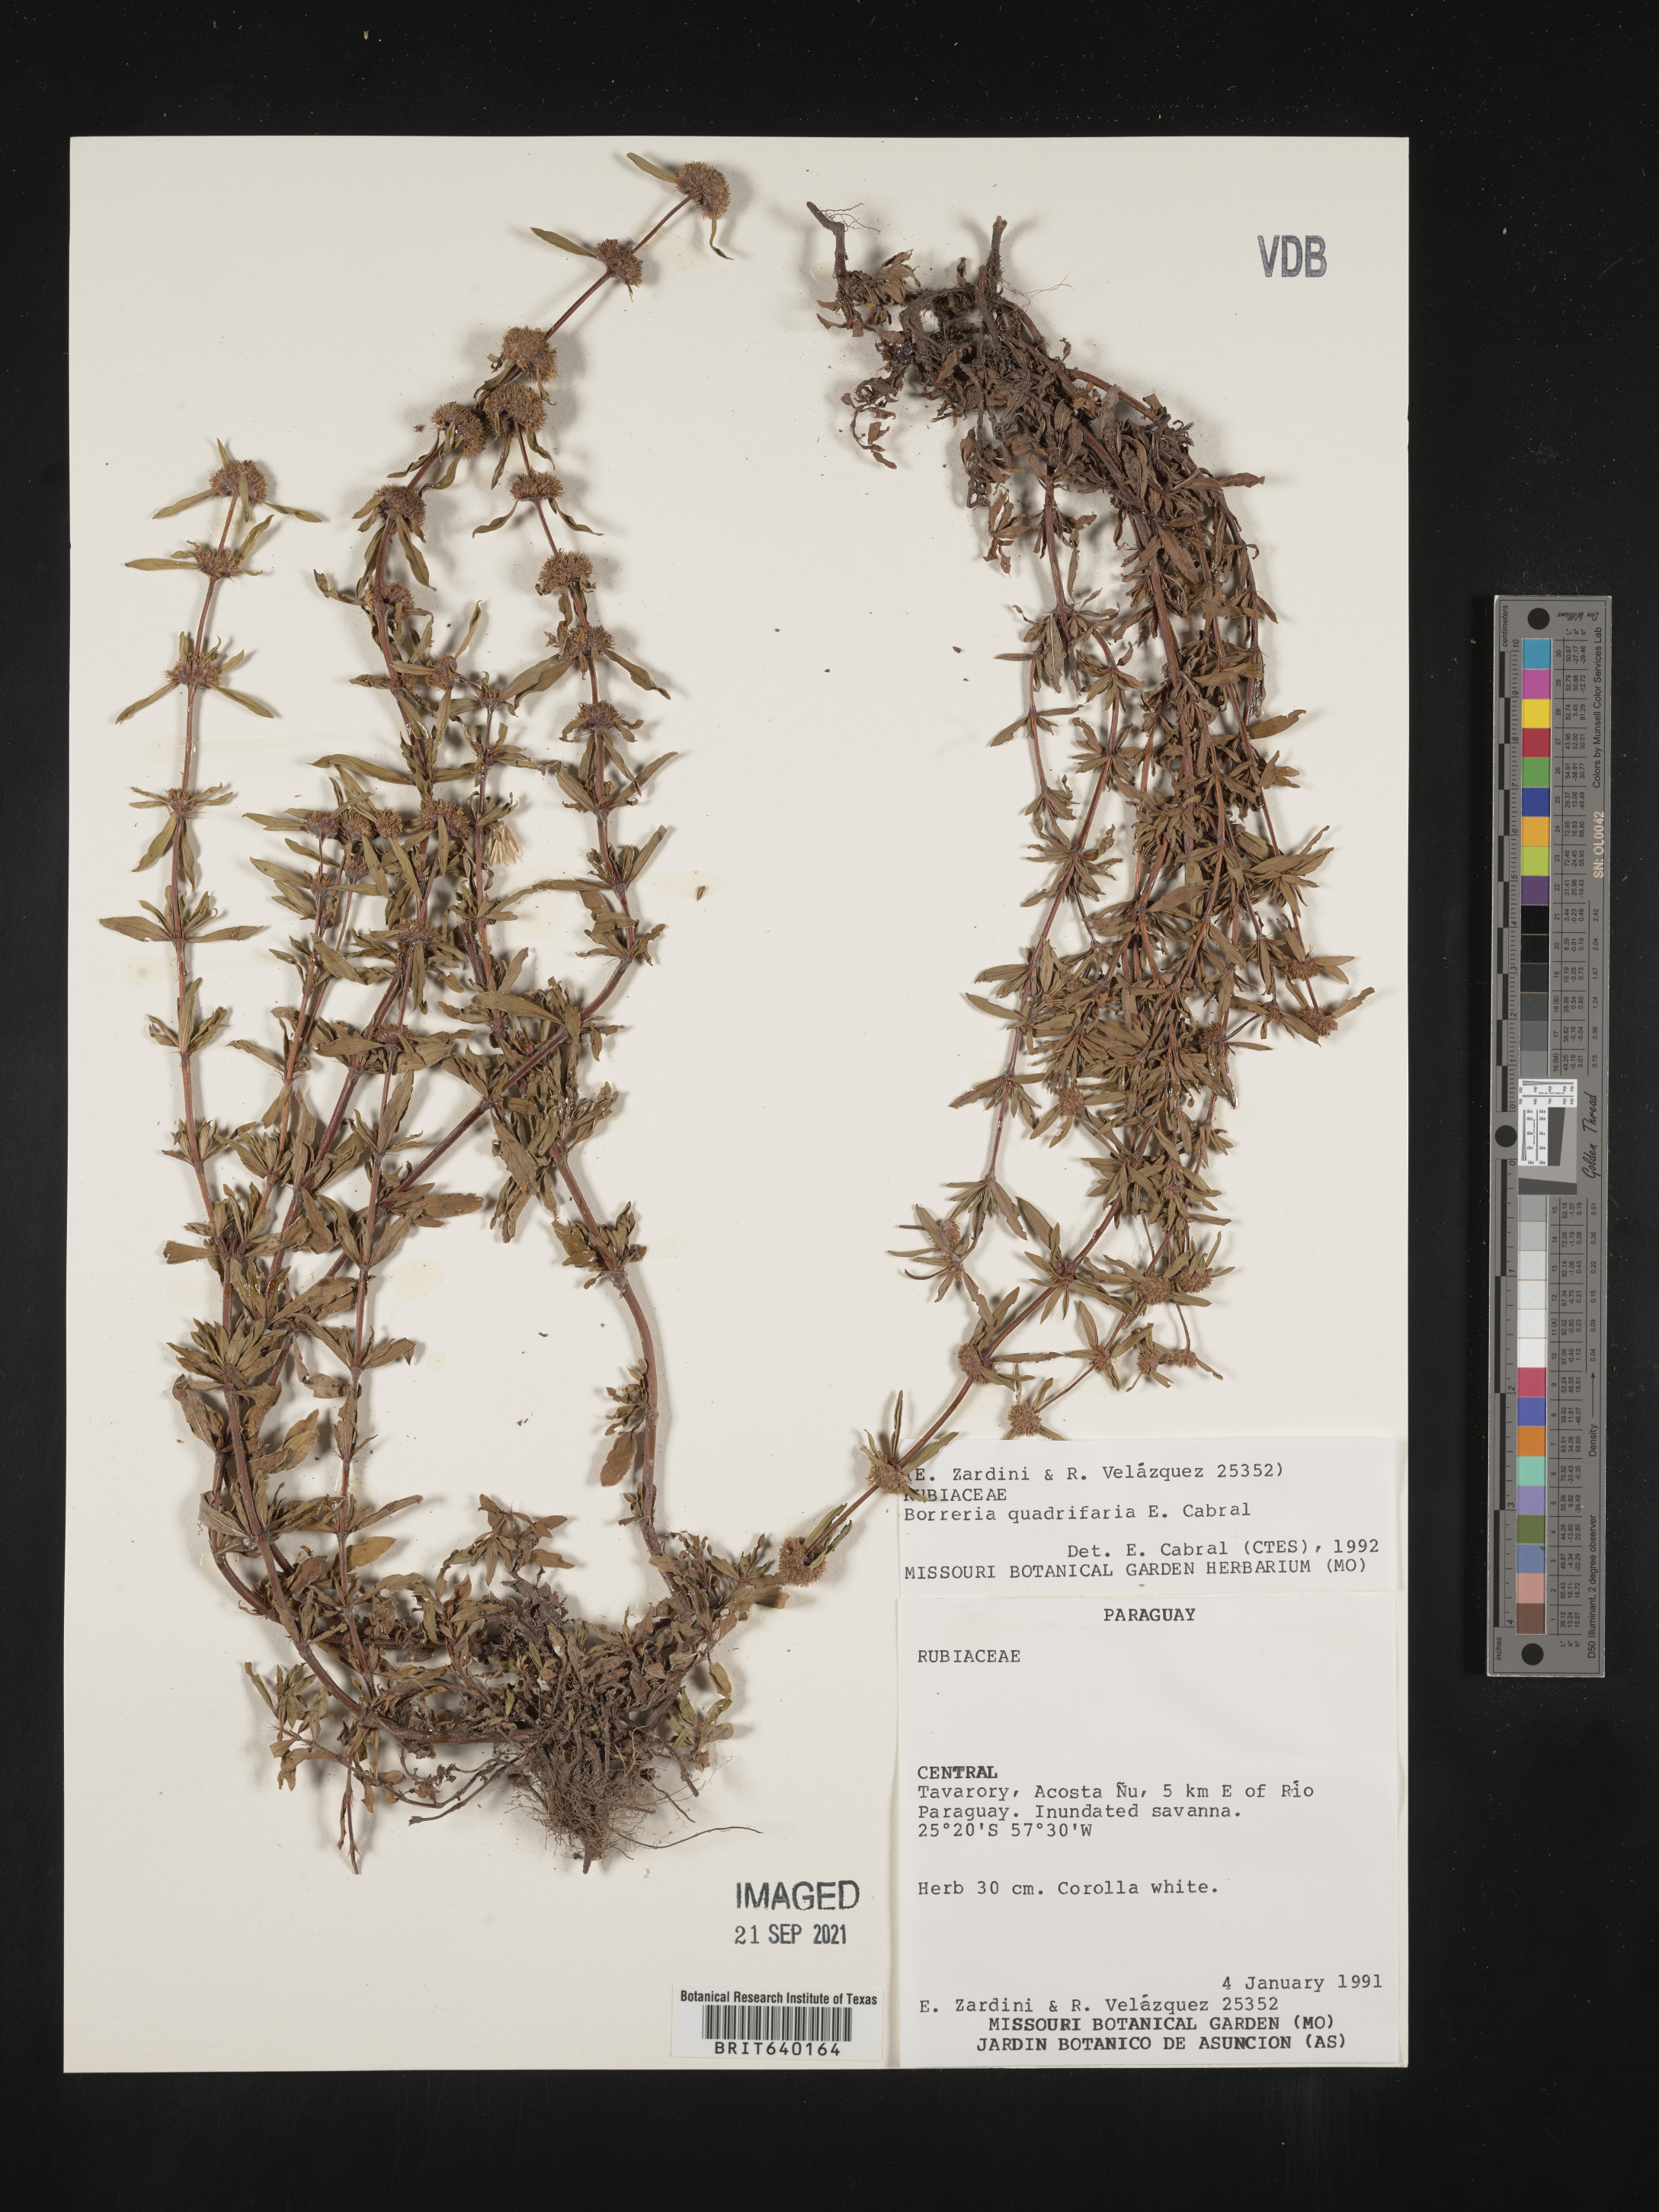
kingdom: Plantae
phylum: Tracheophyta
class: Magnoliopsida
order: Gentianales
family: Rubiaceae
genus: Spermacoce
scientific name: Spermacoce
